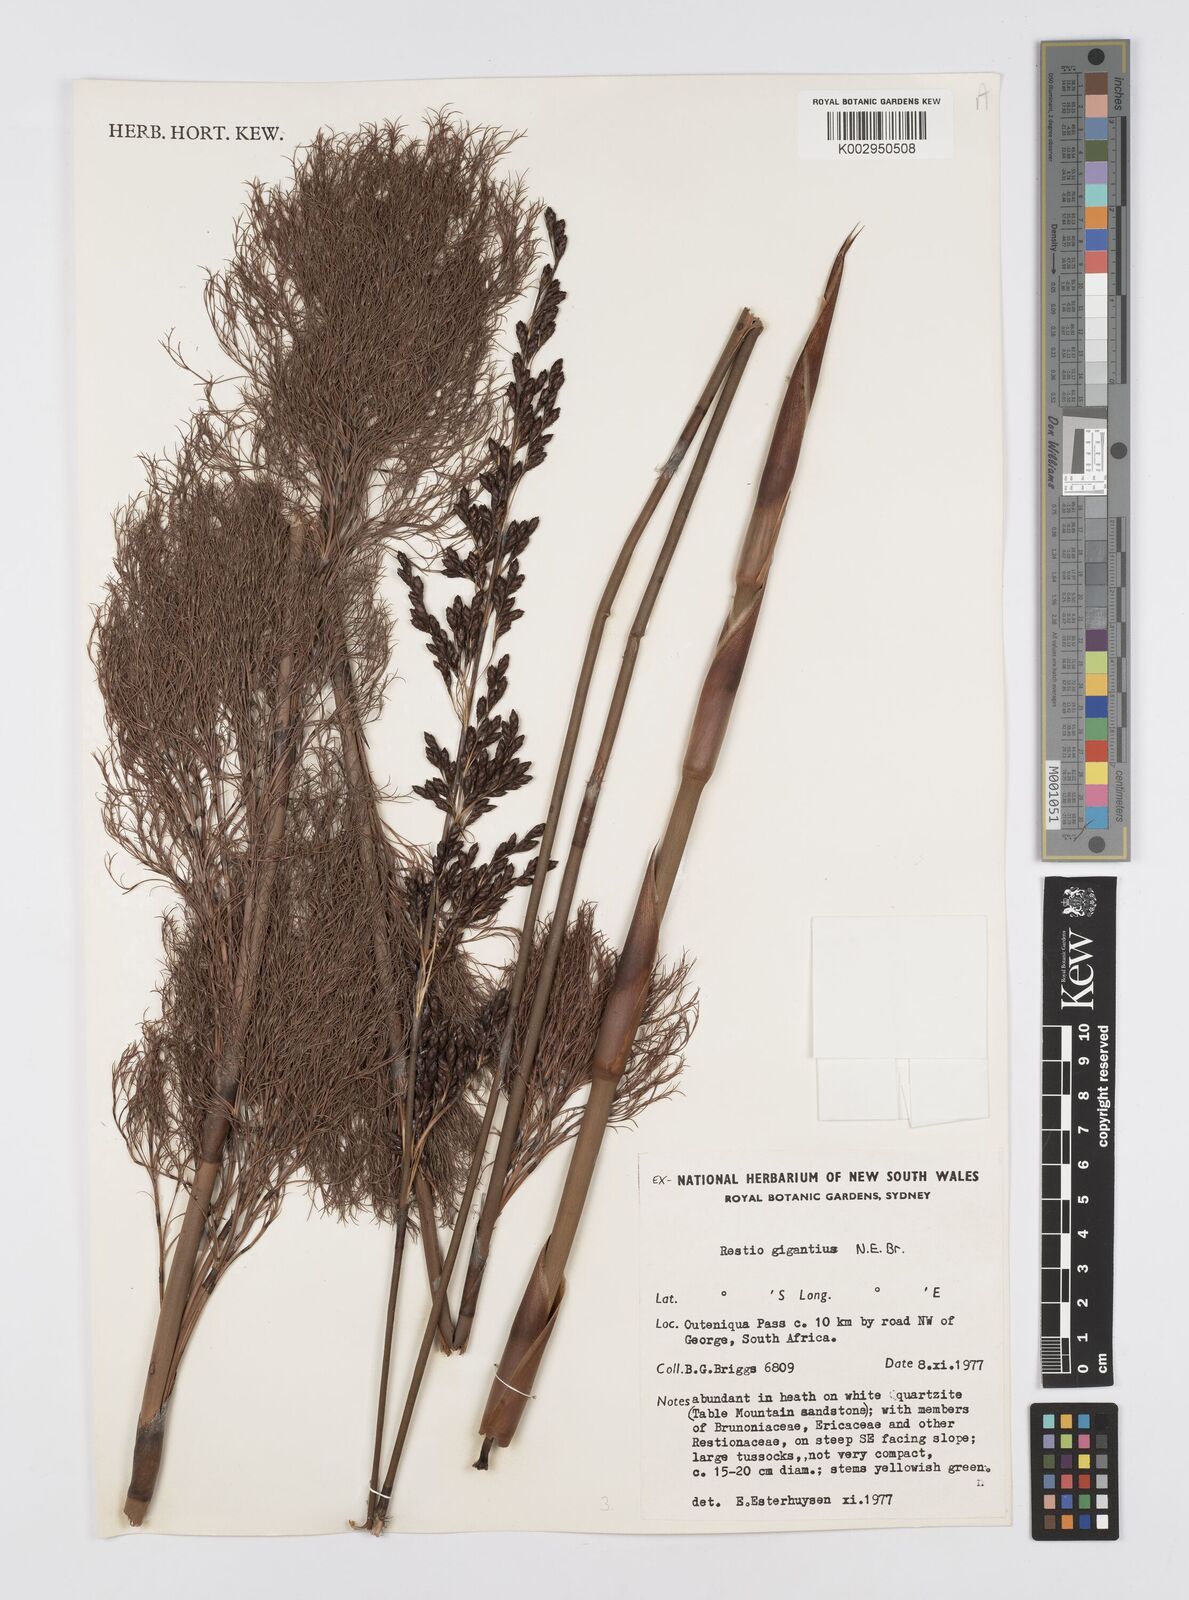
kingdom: Plantae
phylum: Tracheophyta
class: Liliopsida
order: Poales
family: Restionaceae
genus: Rhodocoma
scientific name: Rhodocoma gigantea
